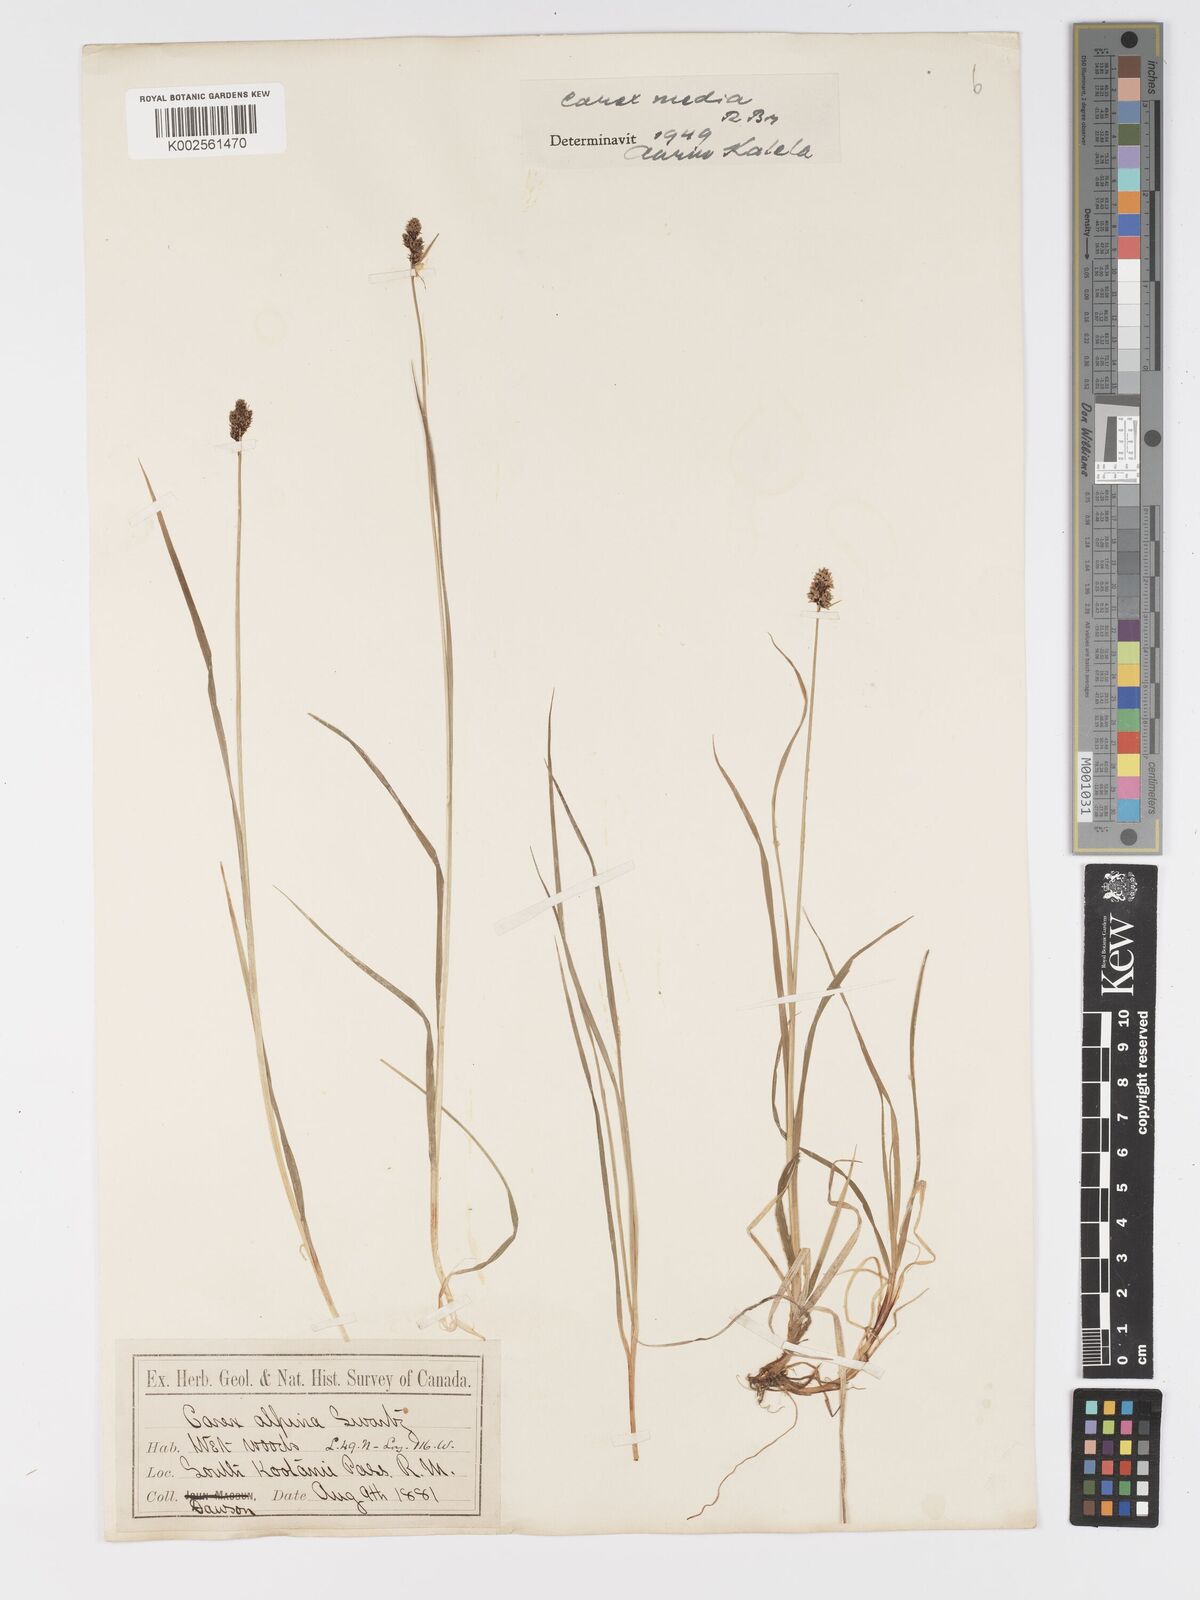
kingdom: Plantae
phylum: Tracheophyta
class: Liliopsida
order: Poales
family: Cyperaceae
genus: Carex
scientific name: Carex media
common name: Alpine sedge
